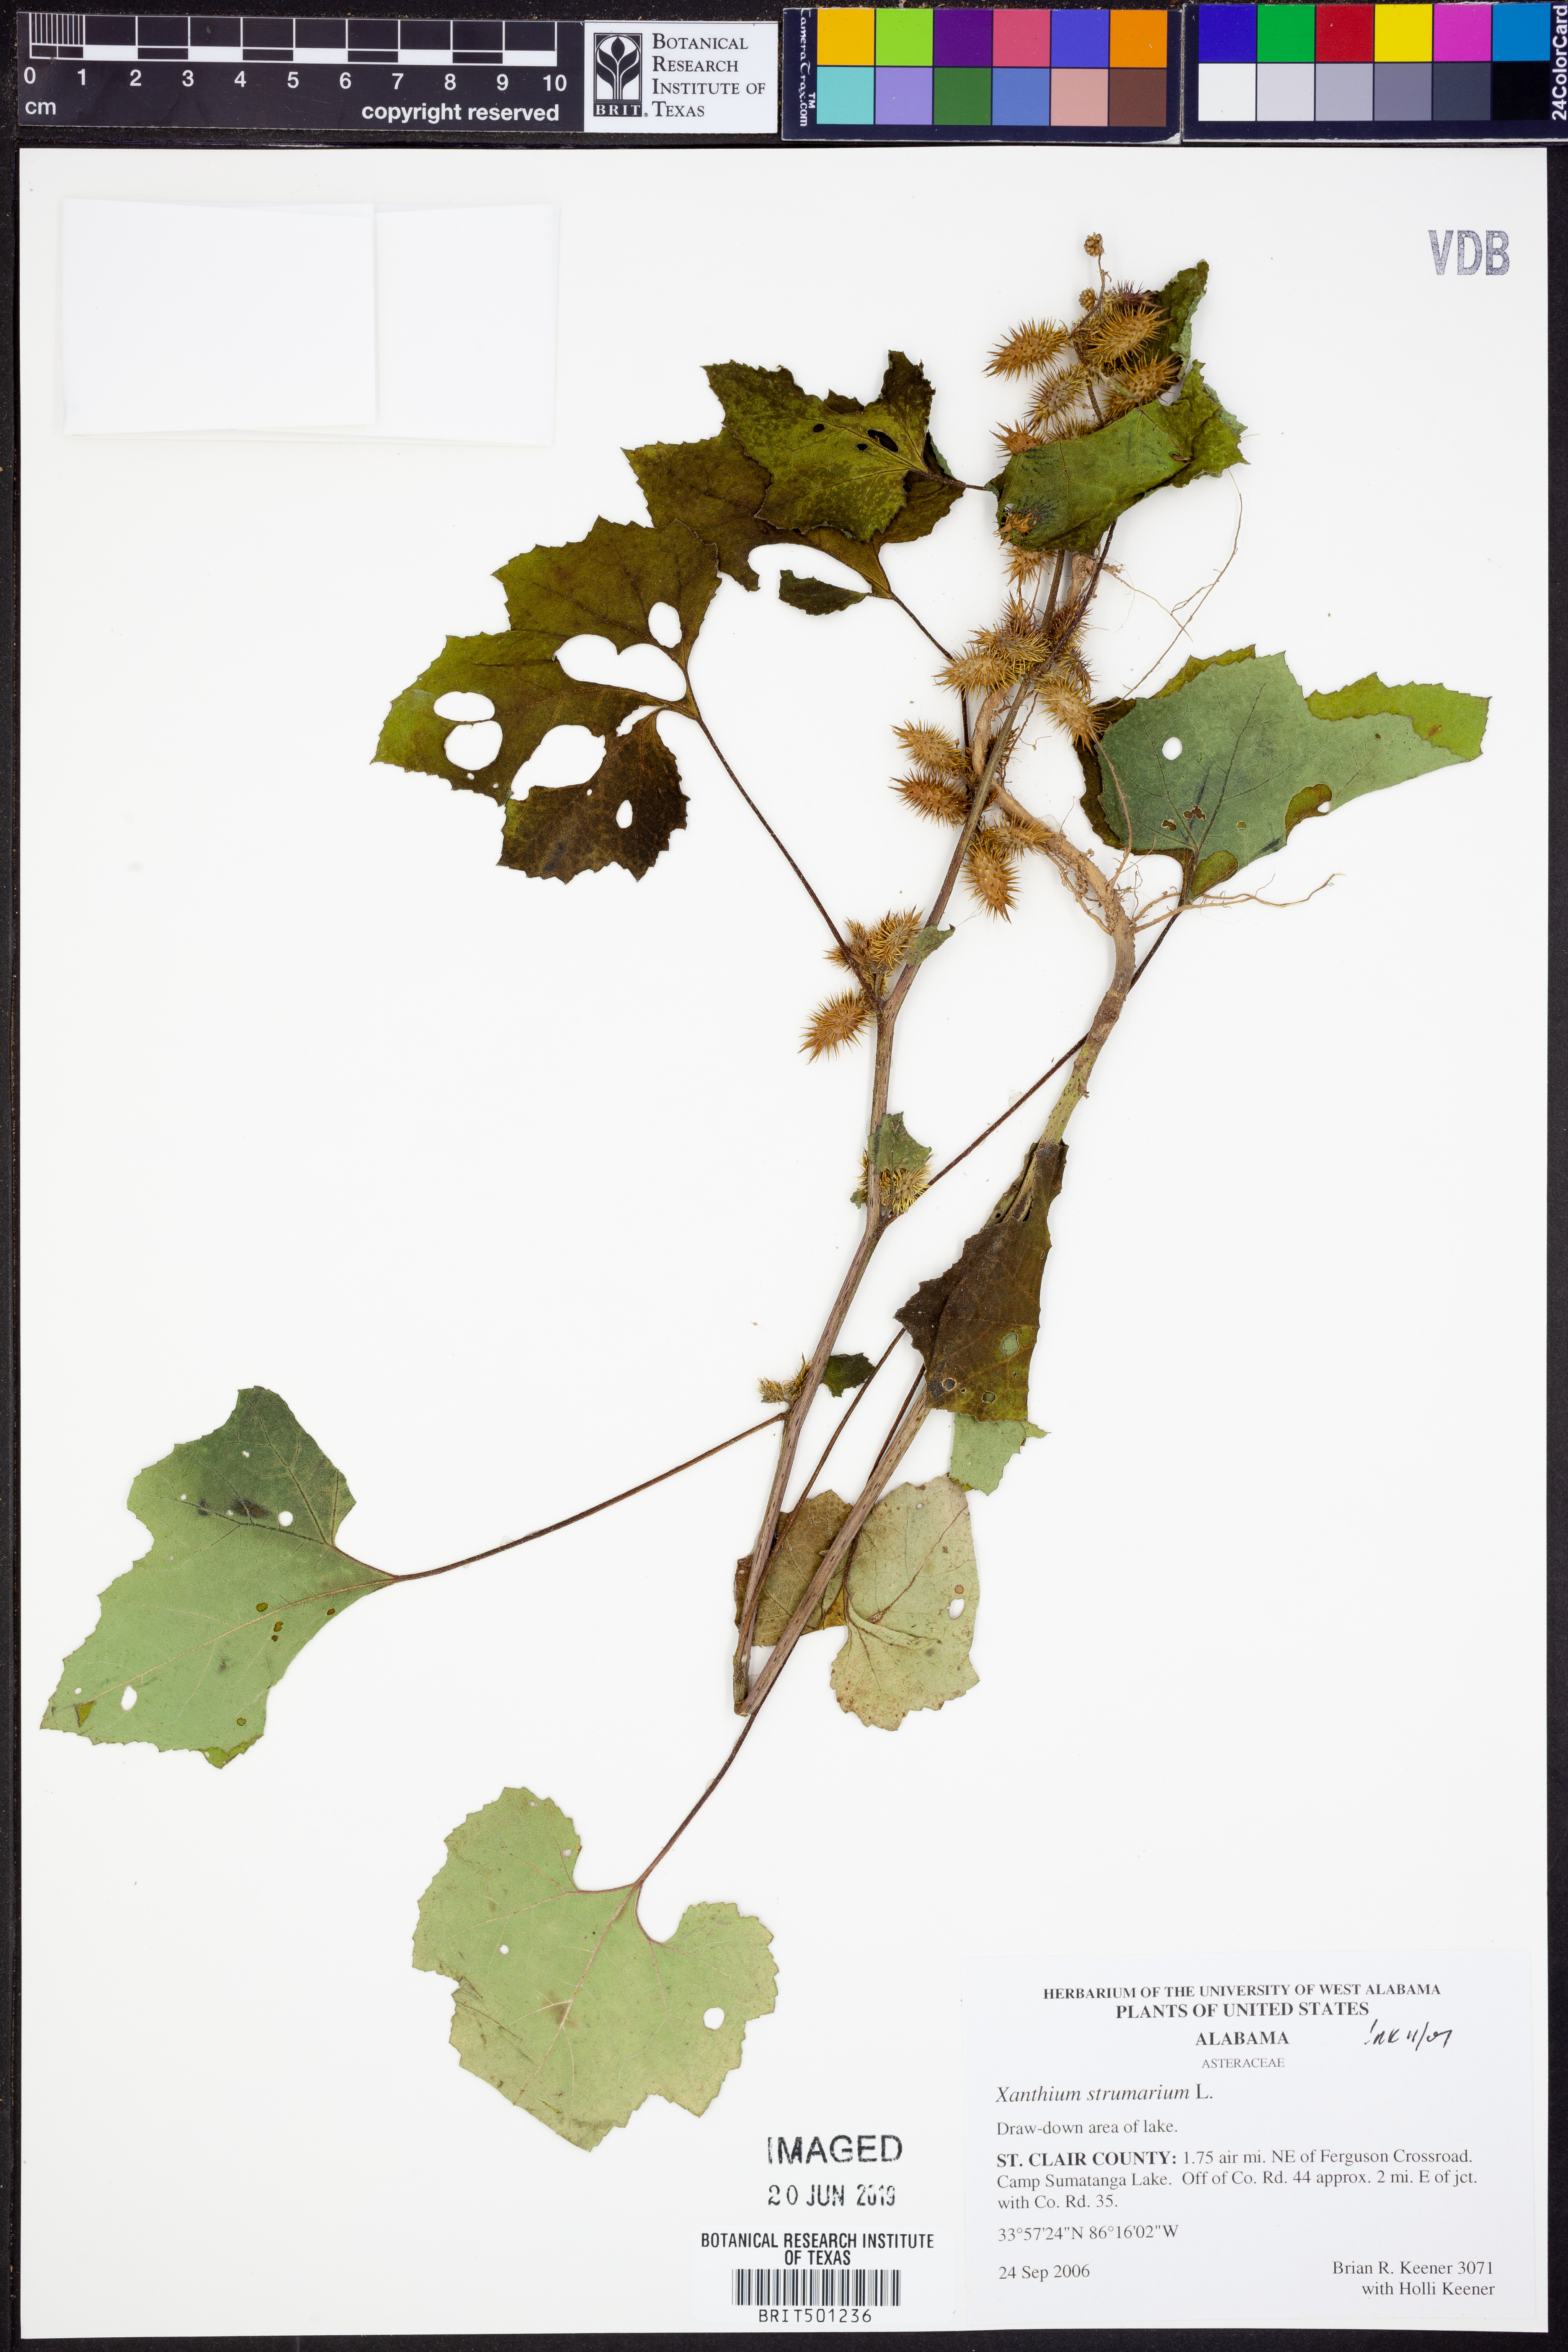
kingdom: Plantae
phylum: Tracheophyta
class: Magnoliopsida
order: Asterales
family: Asteraceae
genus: Xanthium
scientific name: Xanthium strumarium
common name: Rough cocklebur
